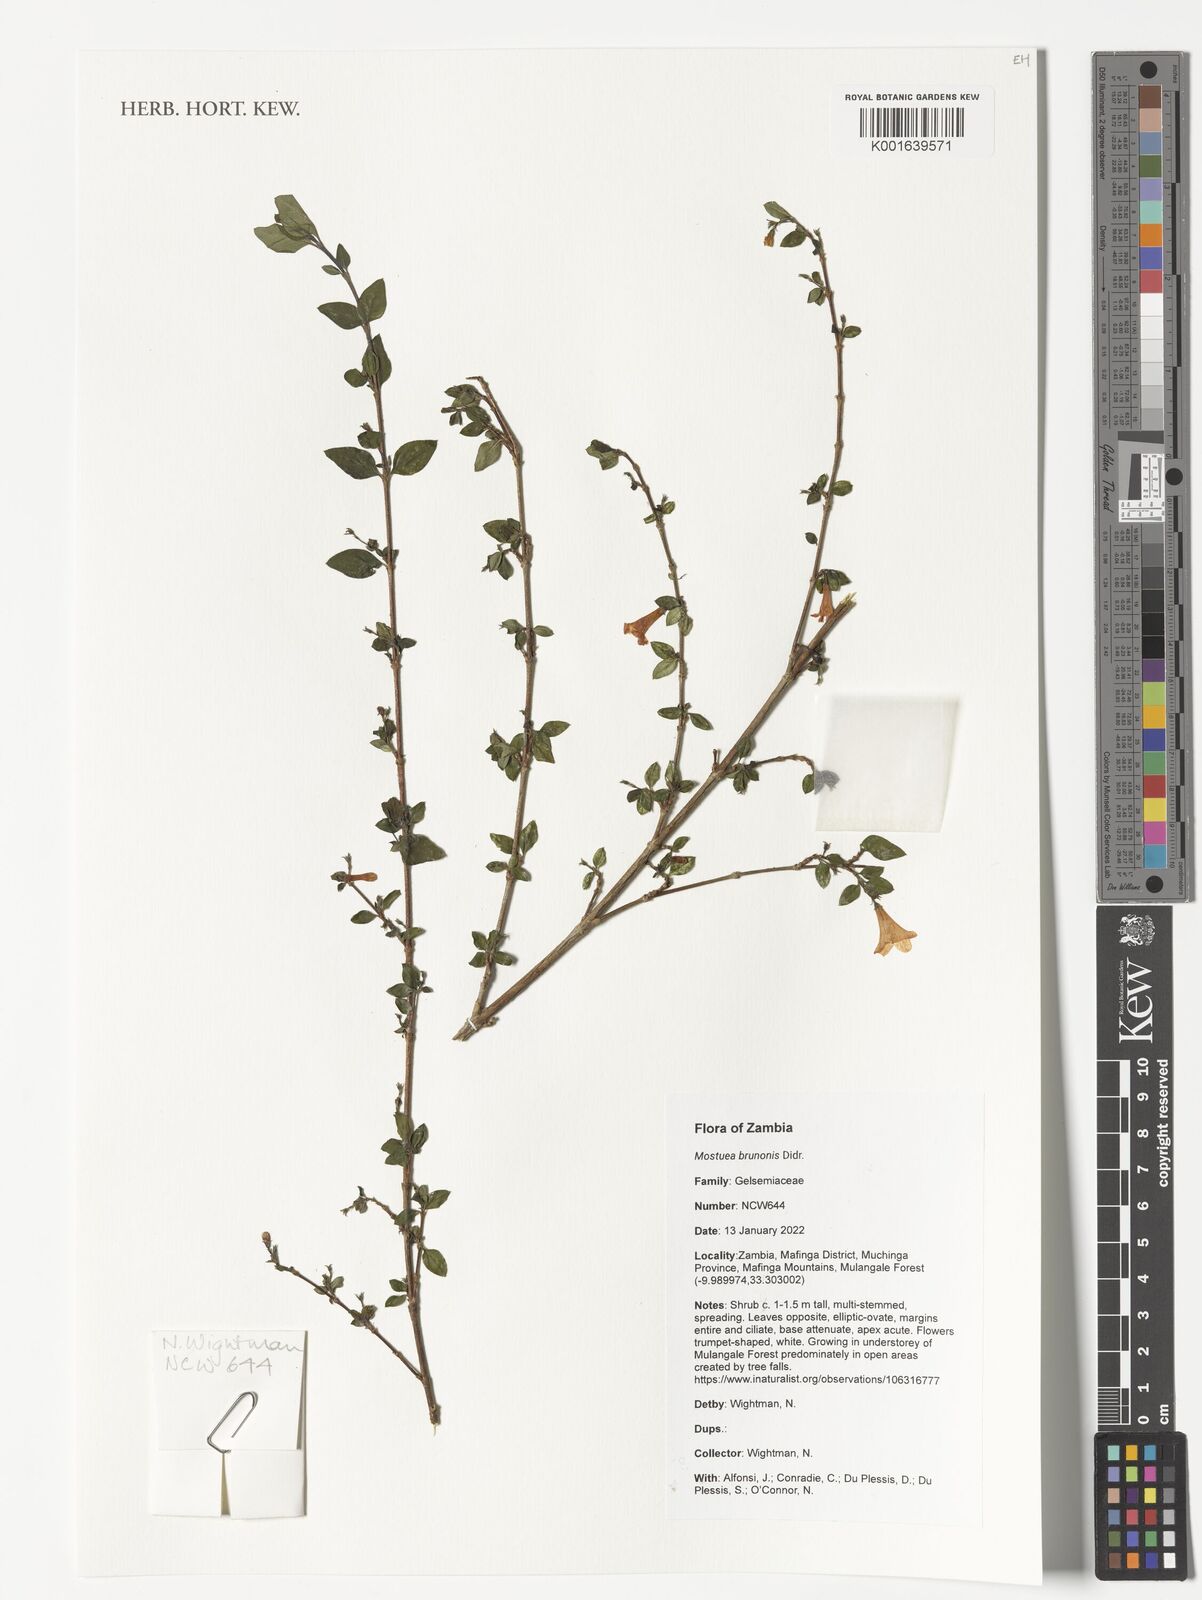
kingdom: Plantae
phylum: Tracheophyta
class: Magnoliopsida
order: Gentianales
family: Gelsemiaceae
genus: Mostuea
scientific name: Mostuea brunonis
